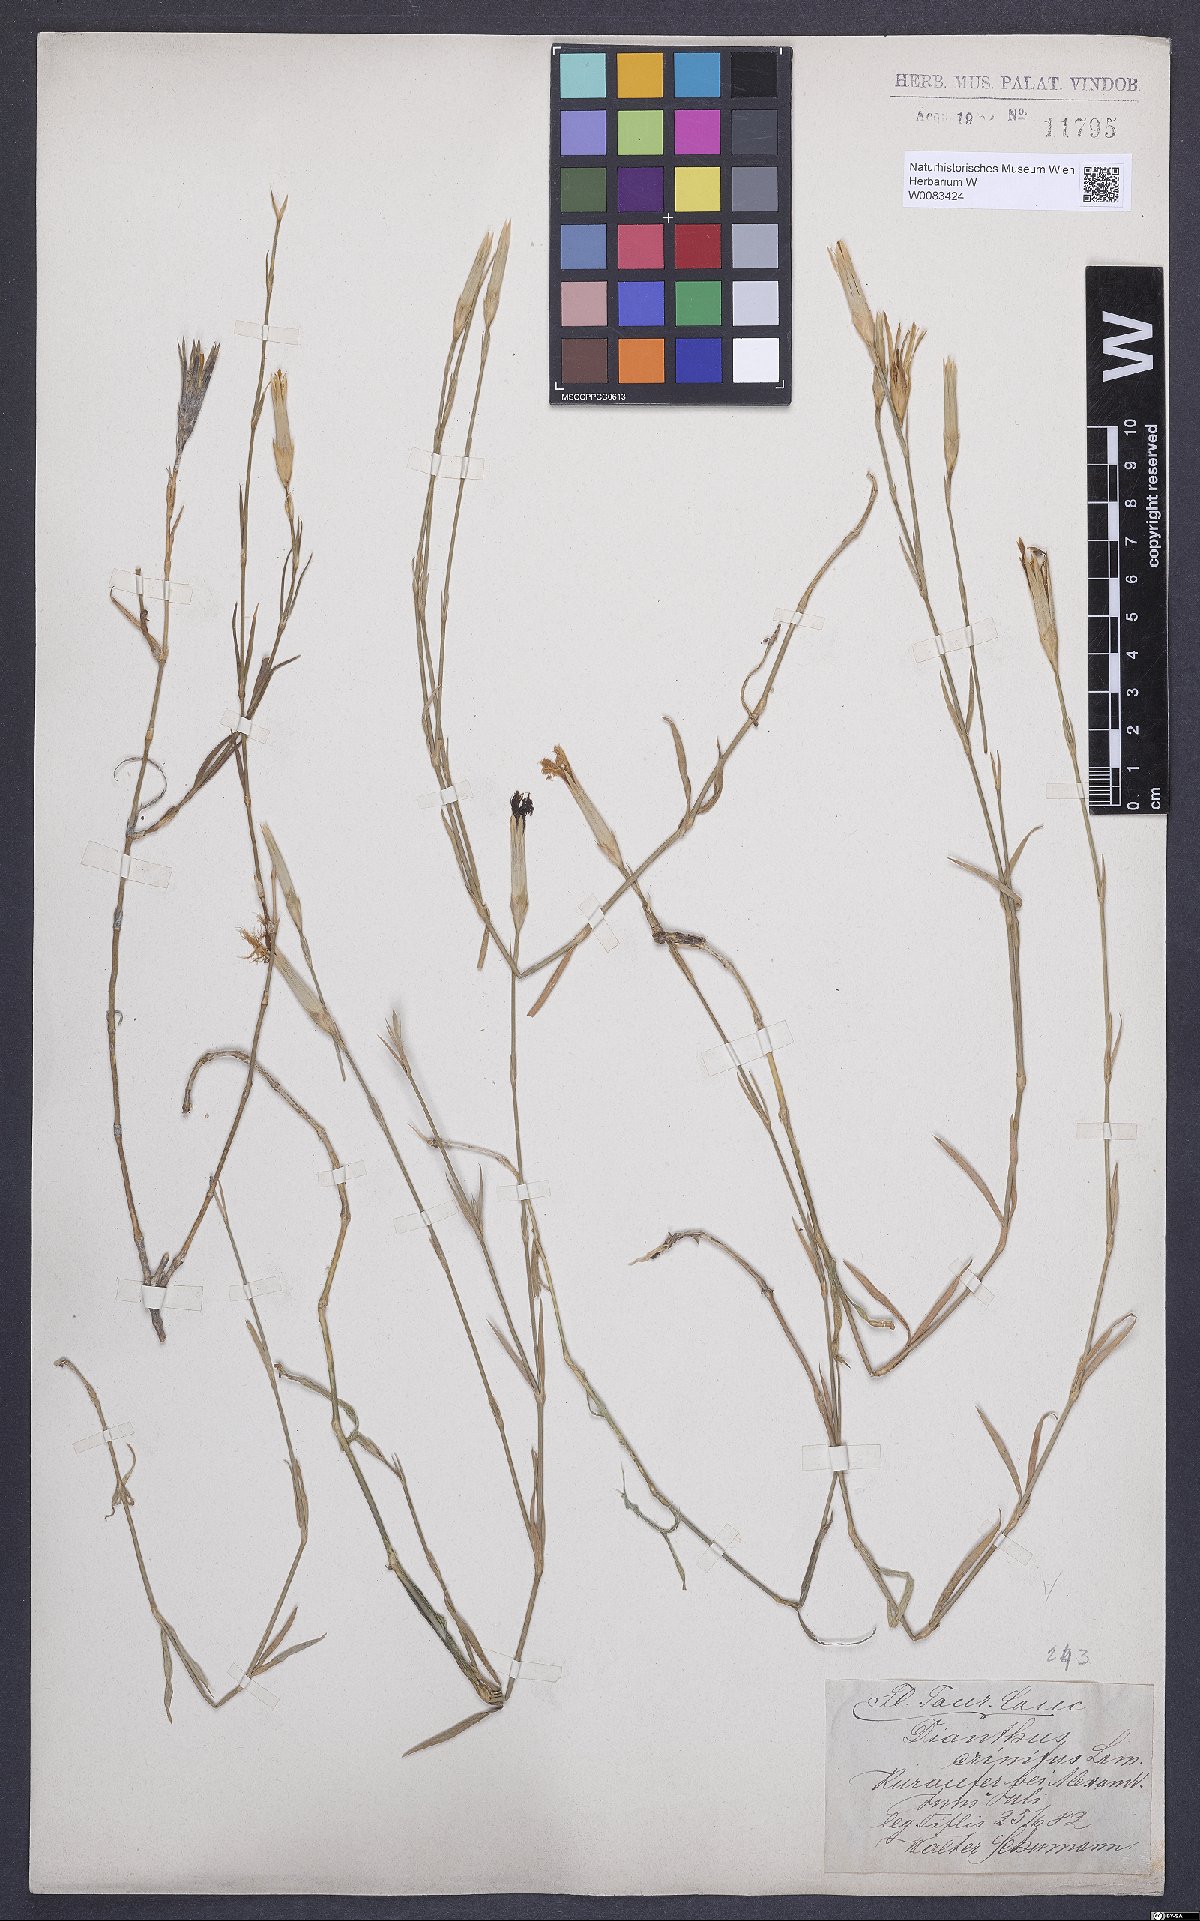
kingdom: Plantae
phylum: Tracheophyta
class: Magnoliopsida
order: Caryophyllales
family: Caryophyllaceae
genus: Dianthus
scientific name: Dianthus crinitus
